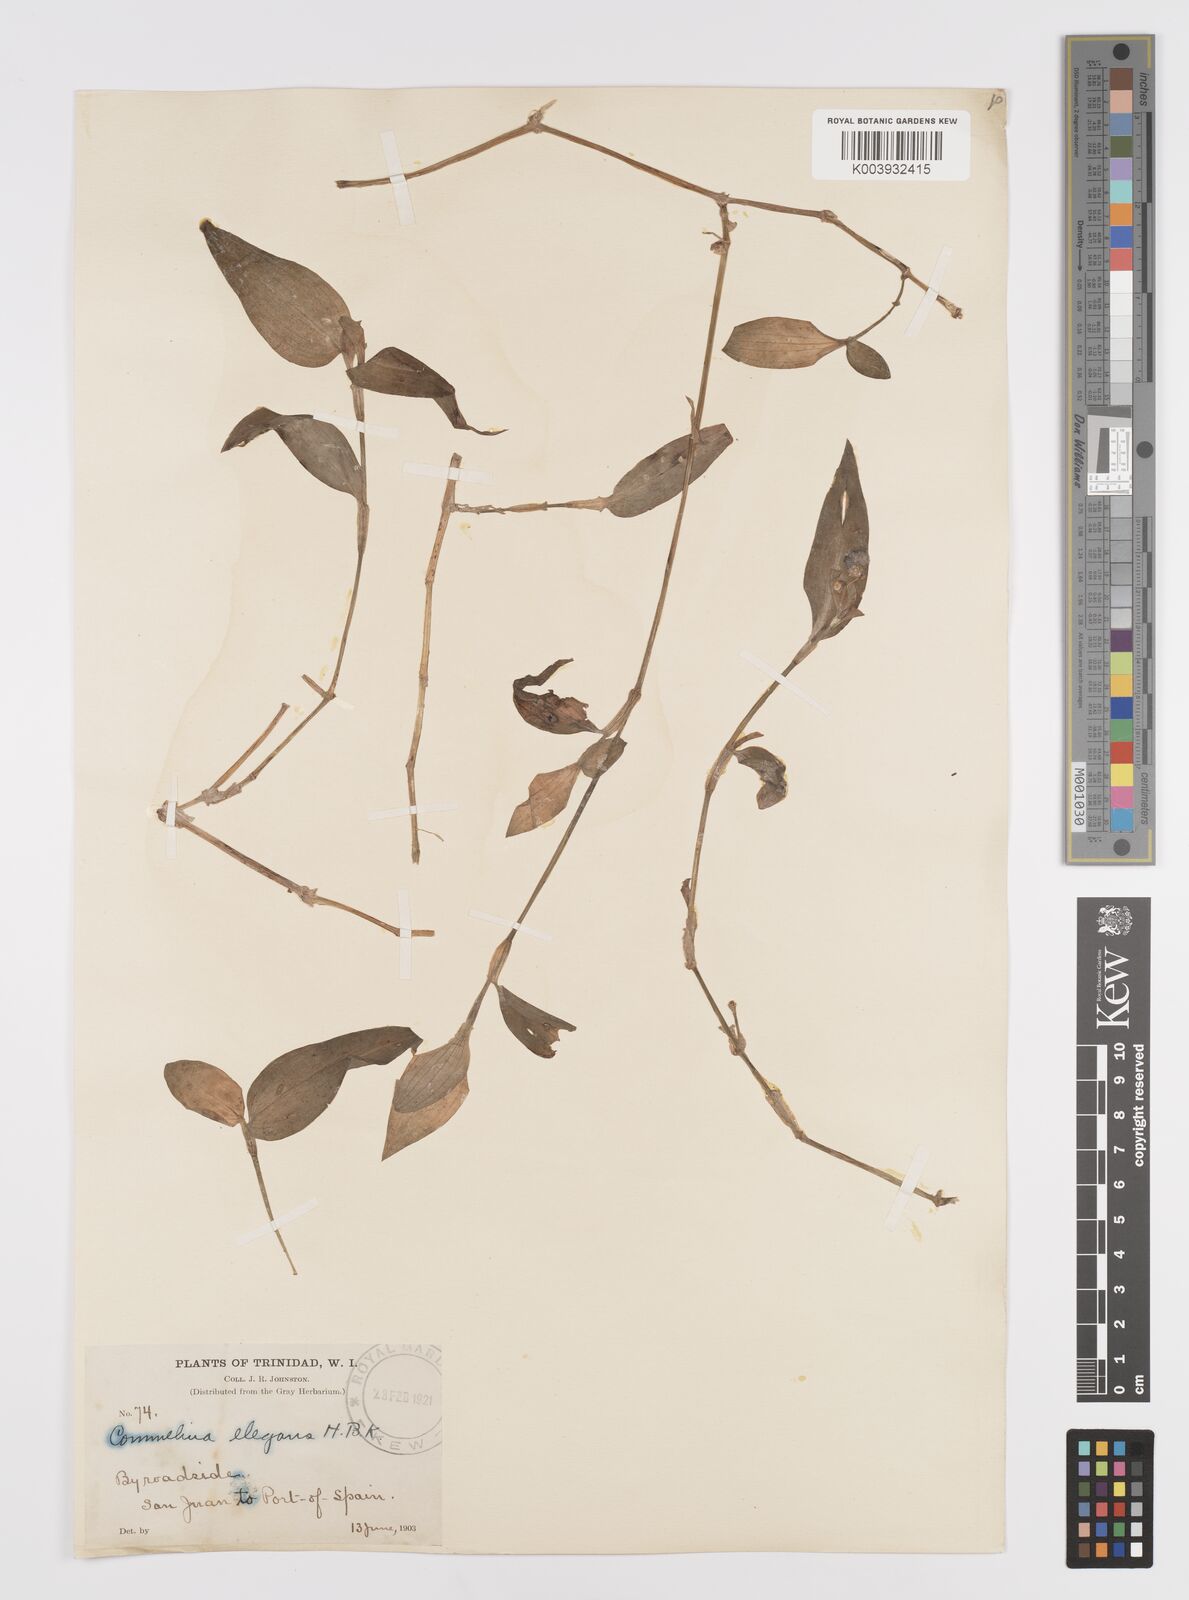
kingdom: Plantae
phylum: Tracheophyta
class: Liliopsida
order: Commelinales
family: Commelinaceae
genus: Commelina
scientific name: Commelina erecta
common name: Blousel blommetjie
